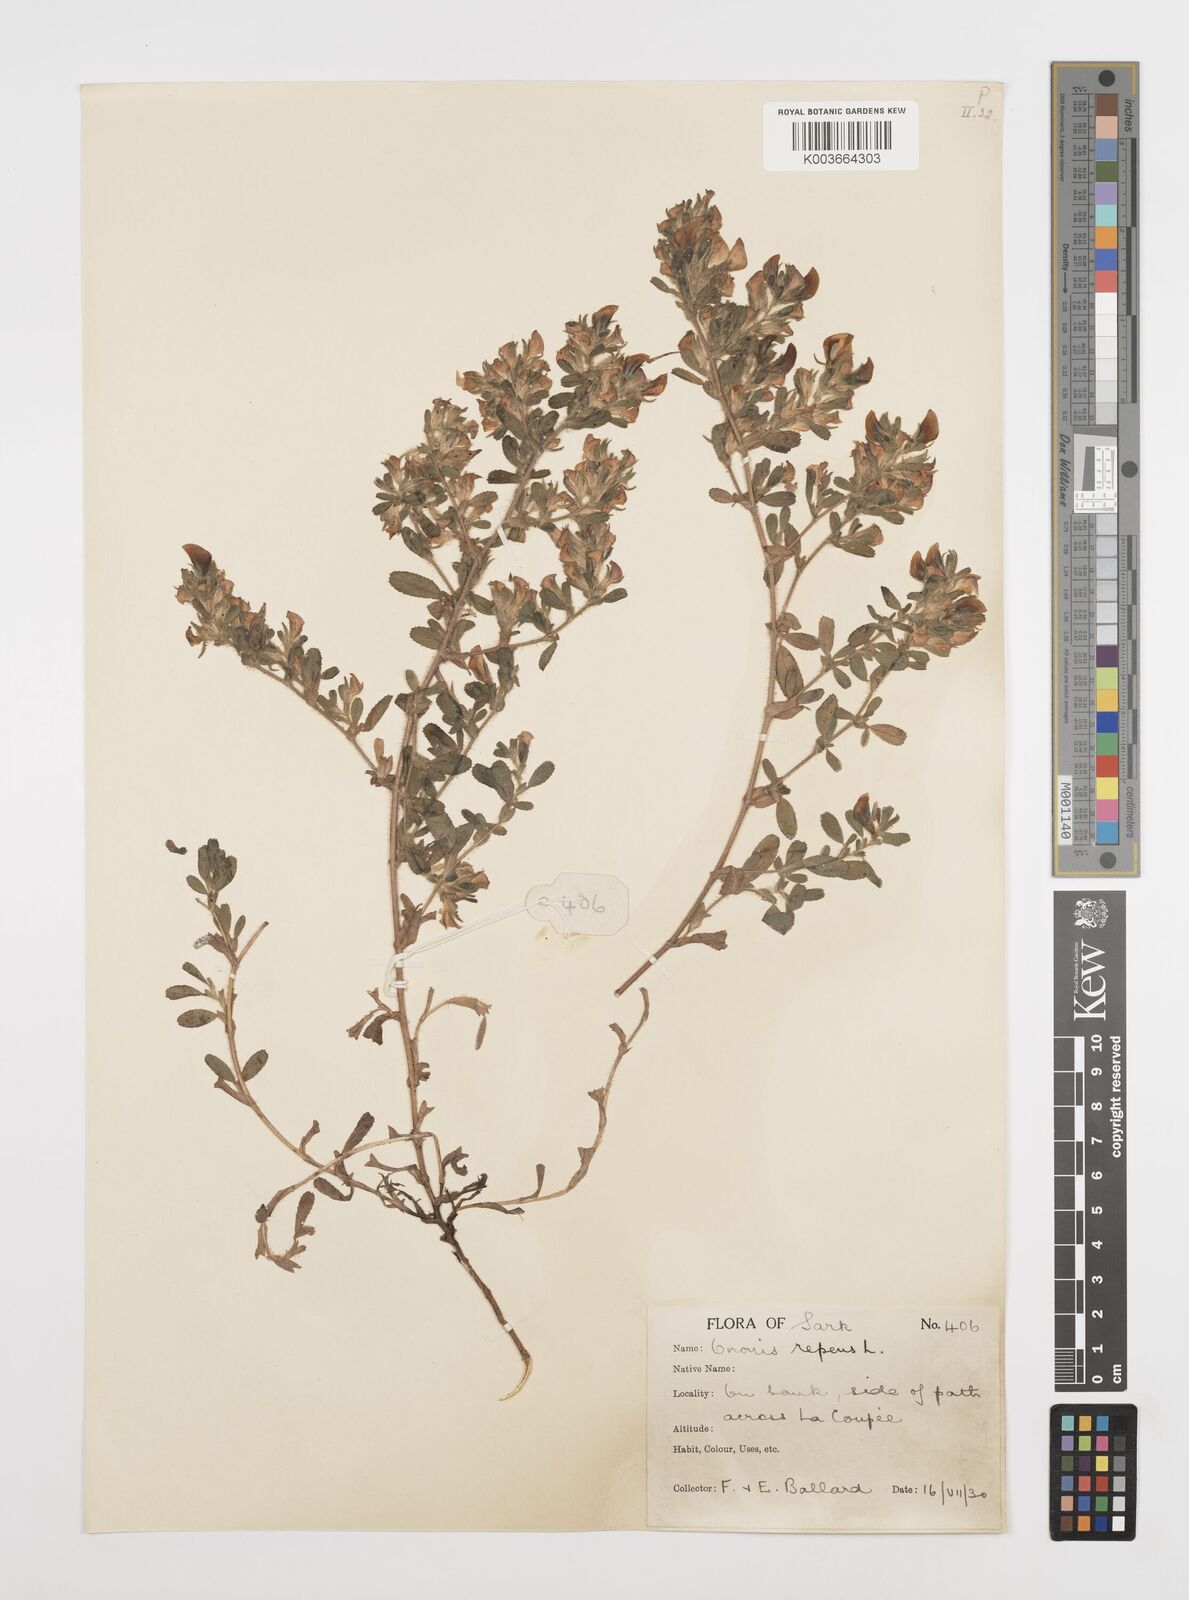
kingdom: Plantae
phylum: Tracheophyta
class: Magnoliopsida
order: Fabales
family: Fabaceae
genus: Ononis
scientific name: Ononis spinosa
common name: Spiny restharrow
